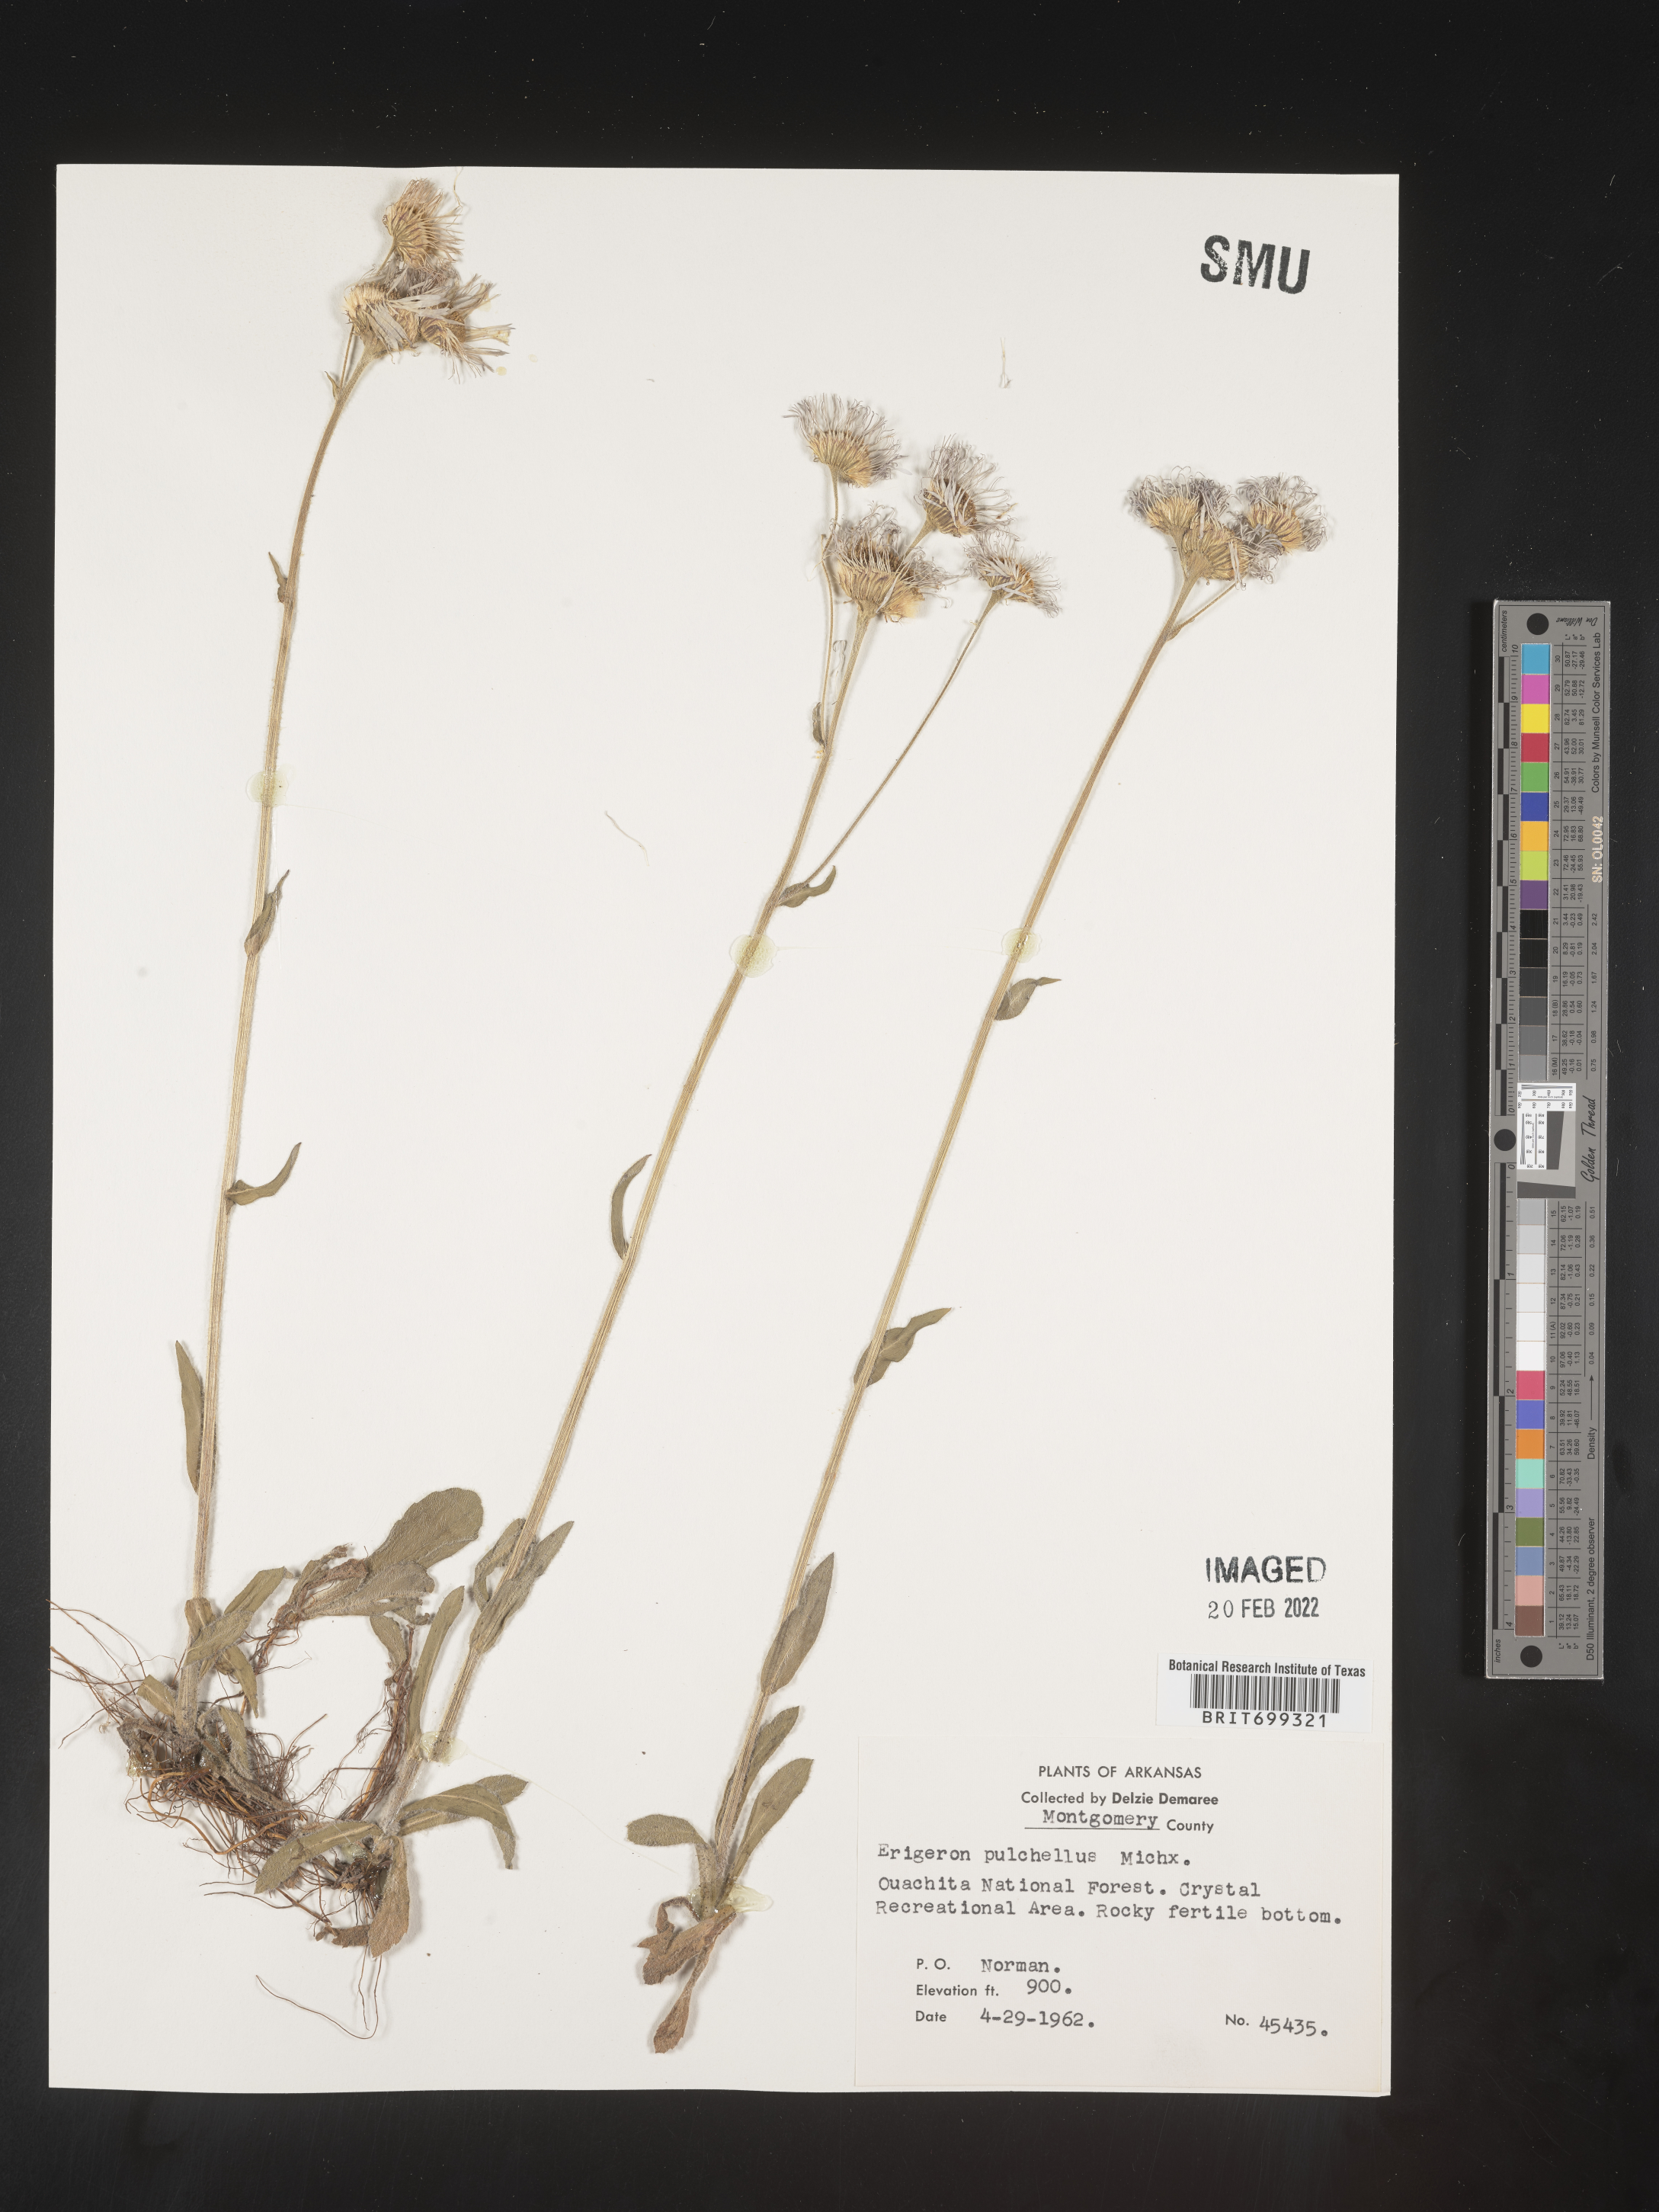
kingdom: Plantae
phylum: Tracheophyta
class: Magnoliopsida
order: Asterales
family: Asteraceae
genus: Erigeron
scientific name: Erigeron pulchellus
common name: Hairy fleabane
